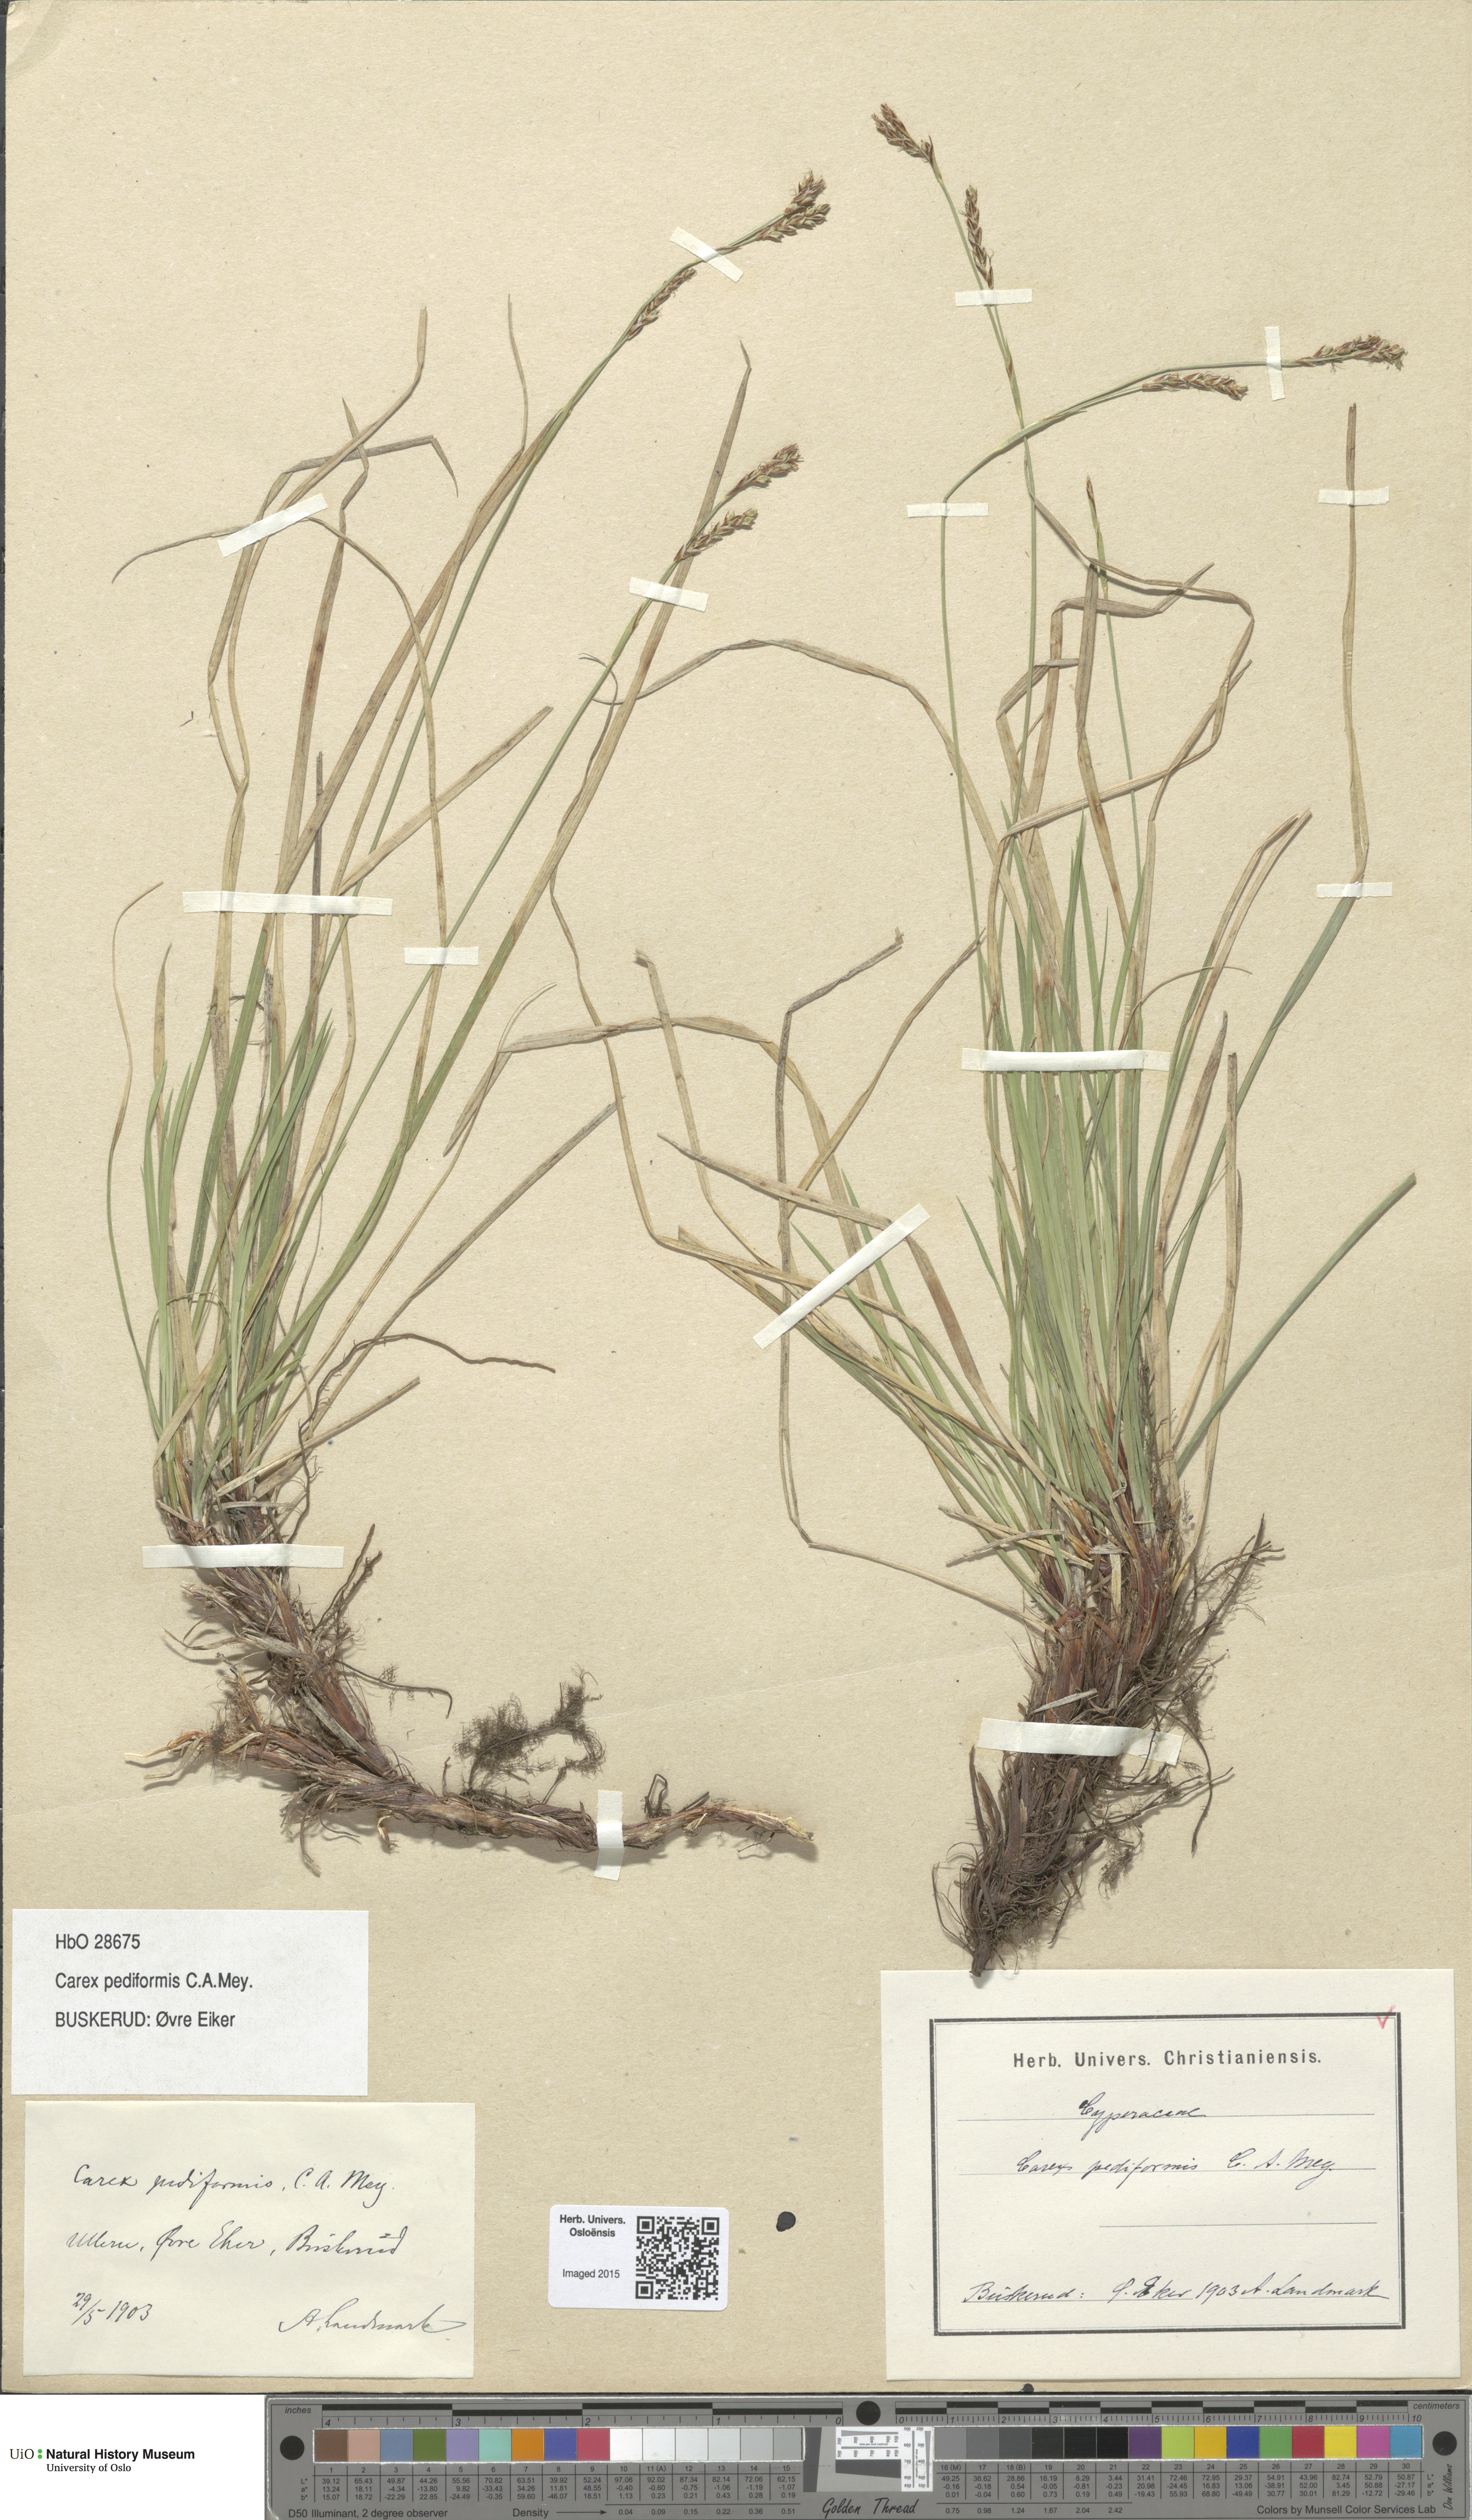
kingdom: Plantae
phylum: Tracheophyta
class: Liliopsida
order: Poales
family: Cyperaceae
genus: Carex
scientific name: Carex rhizina
